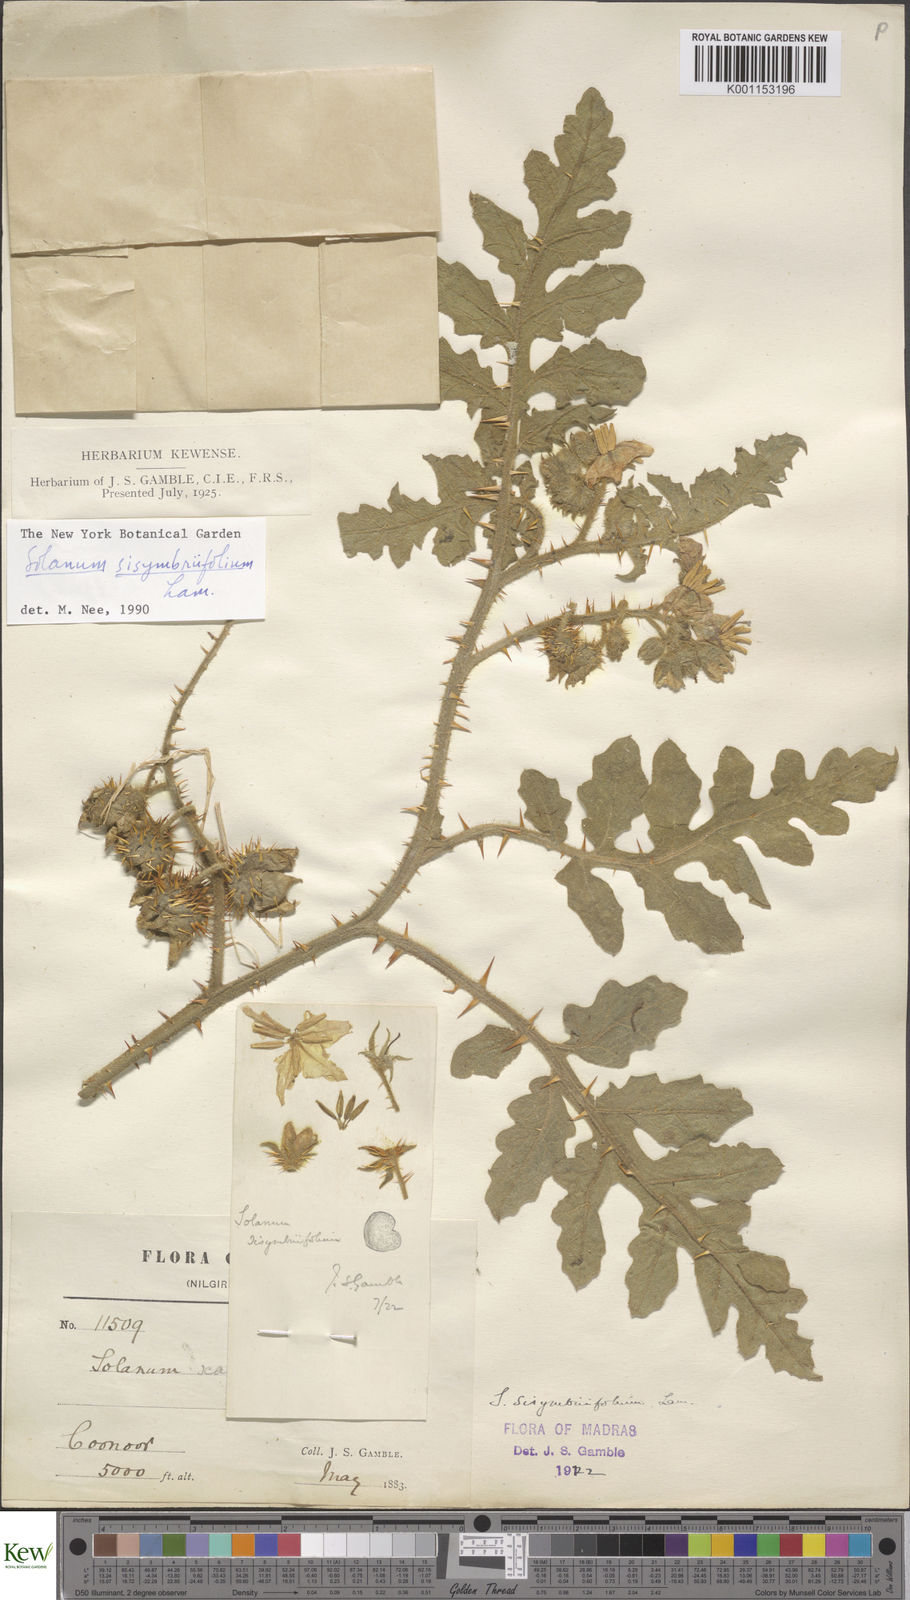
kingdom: Plantae
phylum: Tracheophyta
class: Magnoliopsida
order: Solanales
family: Solanaceae
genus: Solanum
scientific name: Solanum sisymbriifolium
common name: Red buffalo-bur
